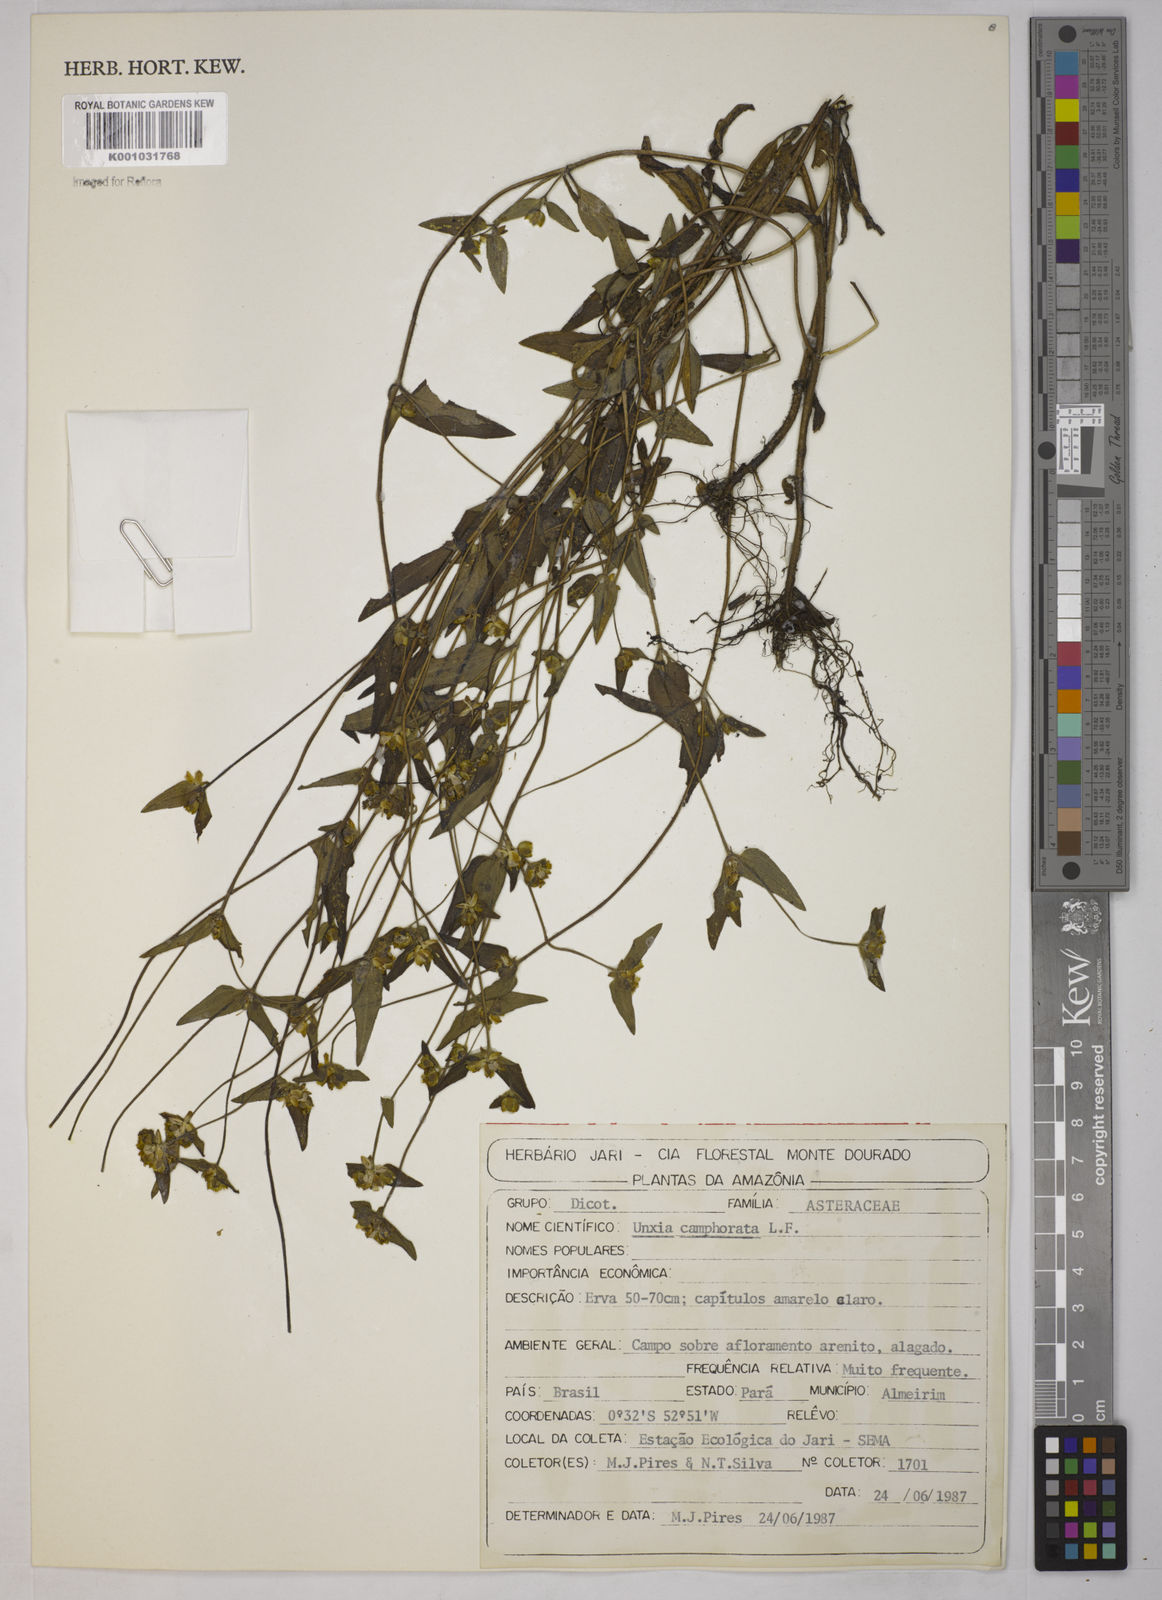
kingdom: Plantae
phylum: Tracheophyta
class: Magnoliopsida
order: Asterales
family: Asteraceae
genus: Unxia
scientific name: Unxia camphorata
